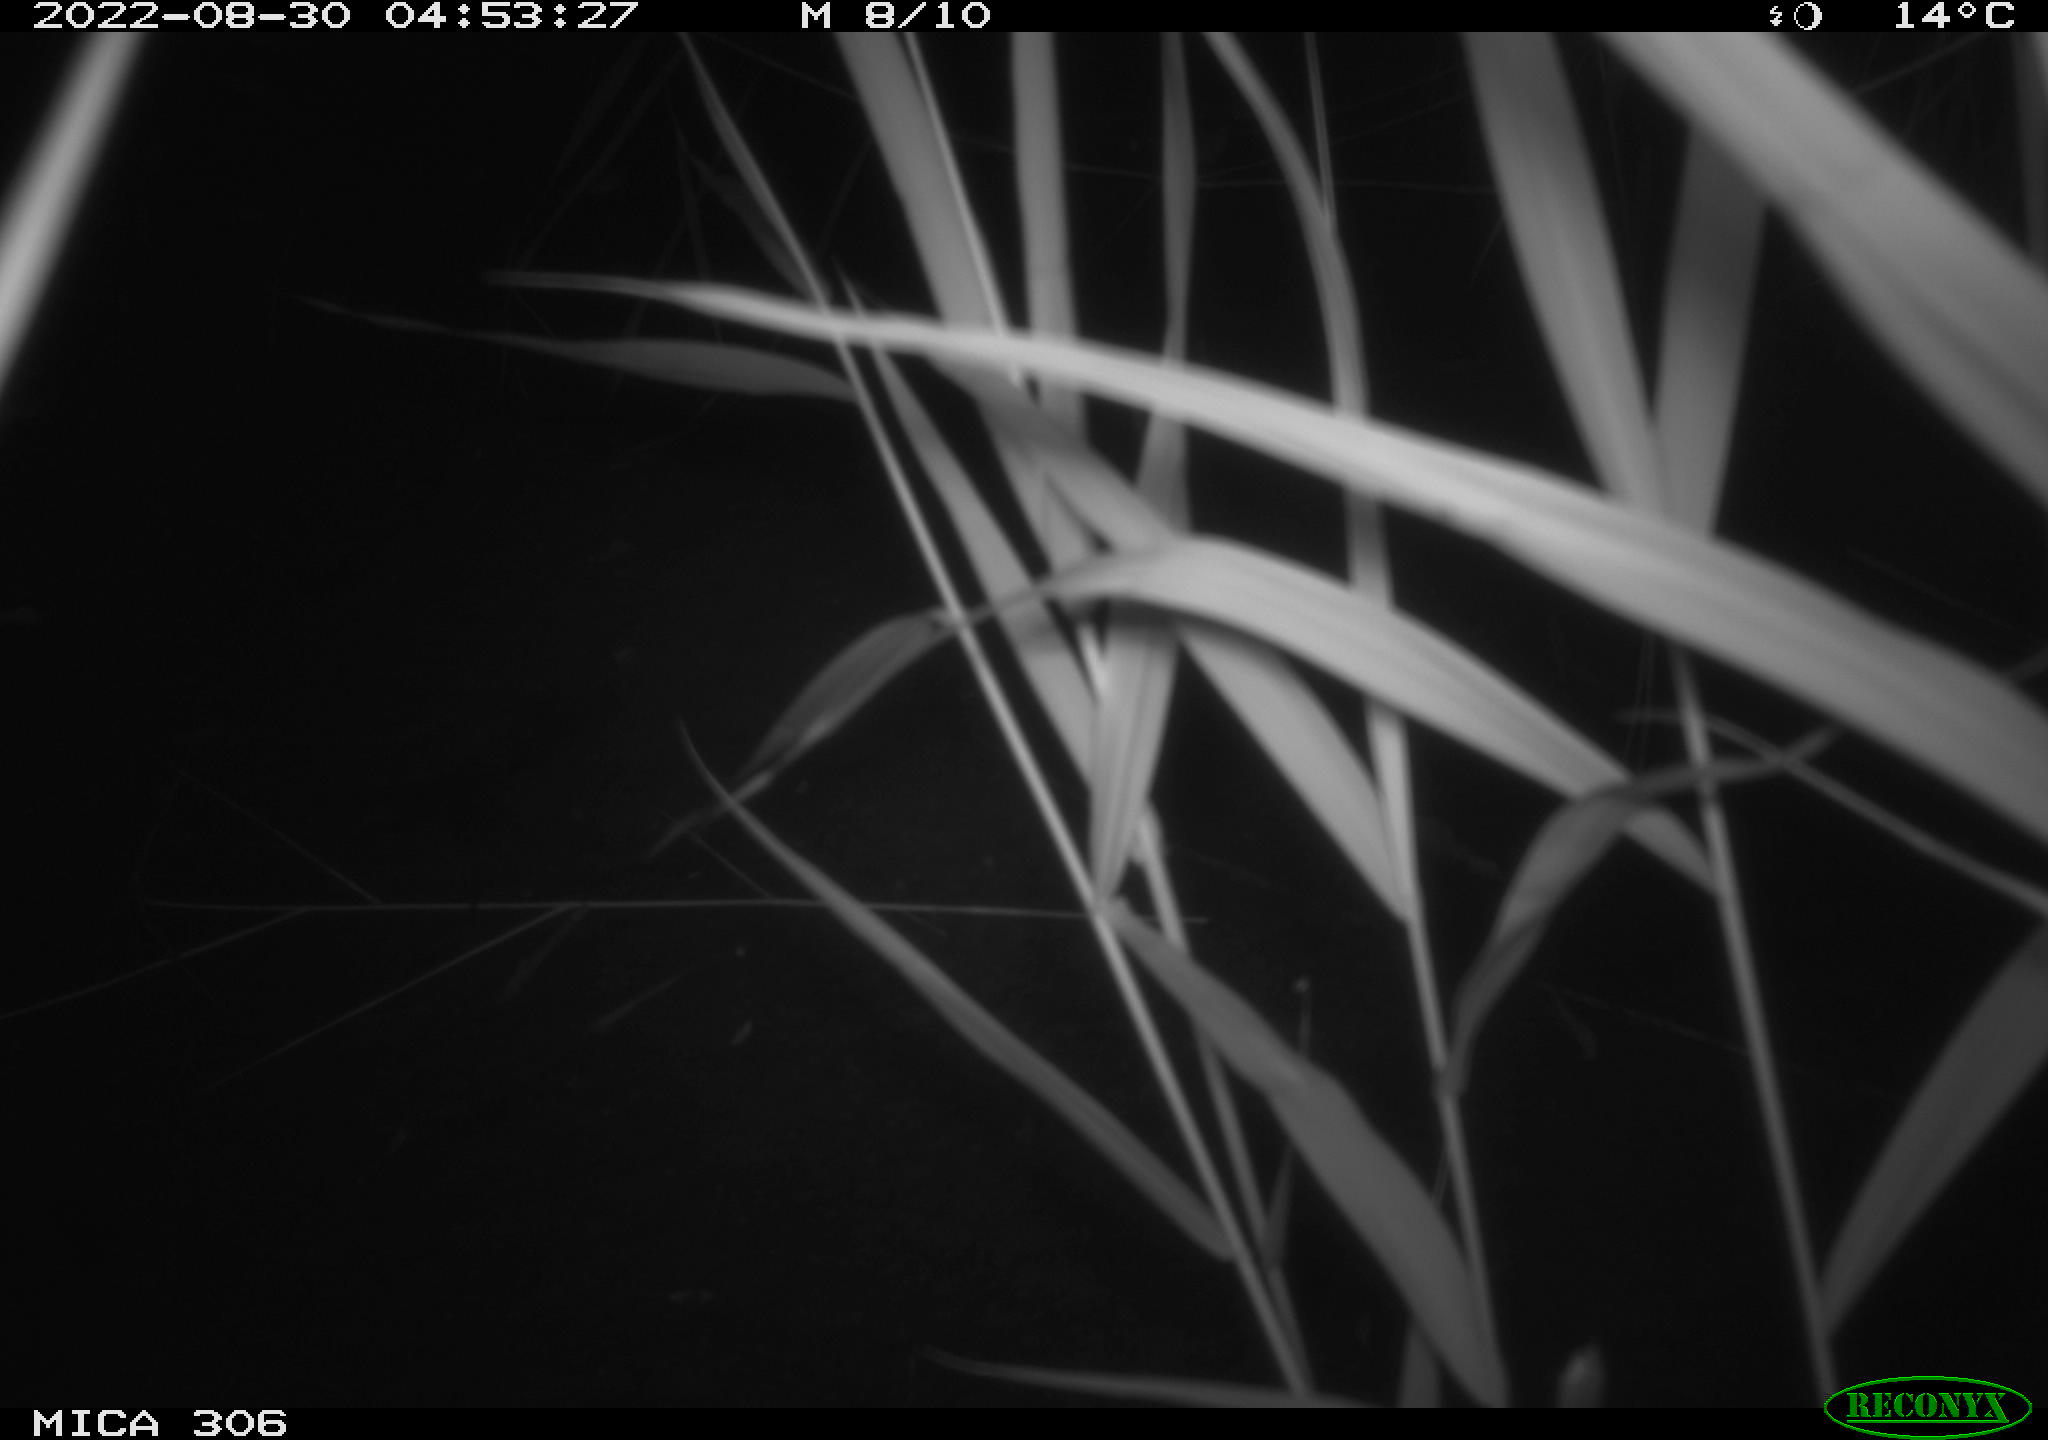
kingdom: Animalia
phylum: Chordata
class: Mammalia
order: Rodentia
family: Muridae
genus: Rattus
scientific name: Rattus norvegicus
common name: Brown rat
